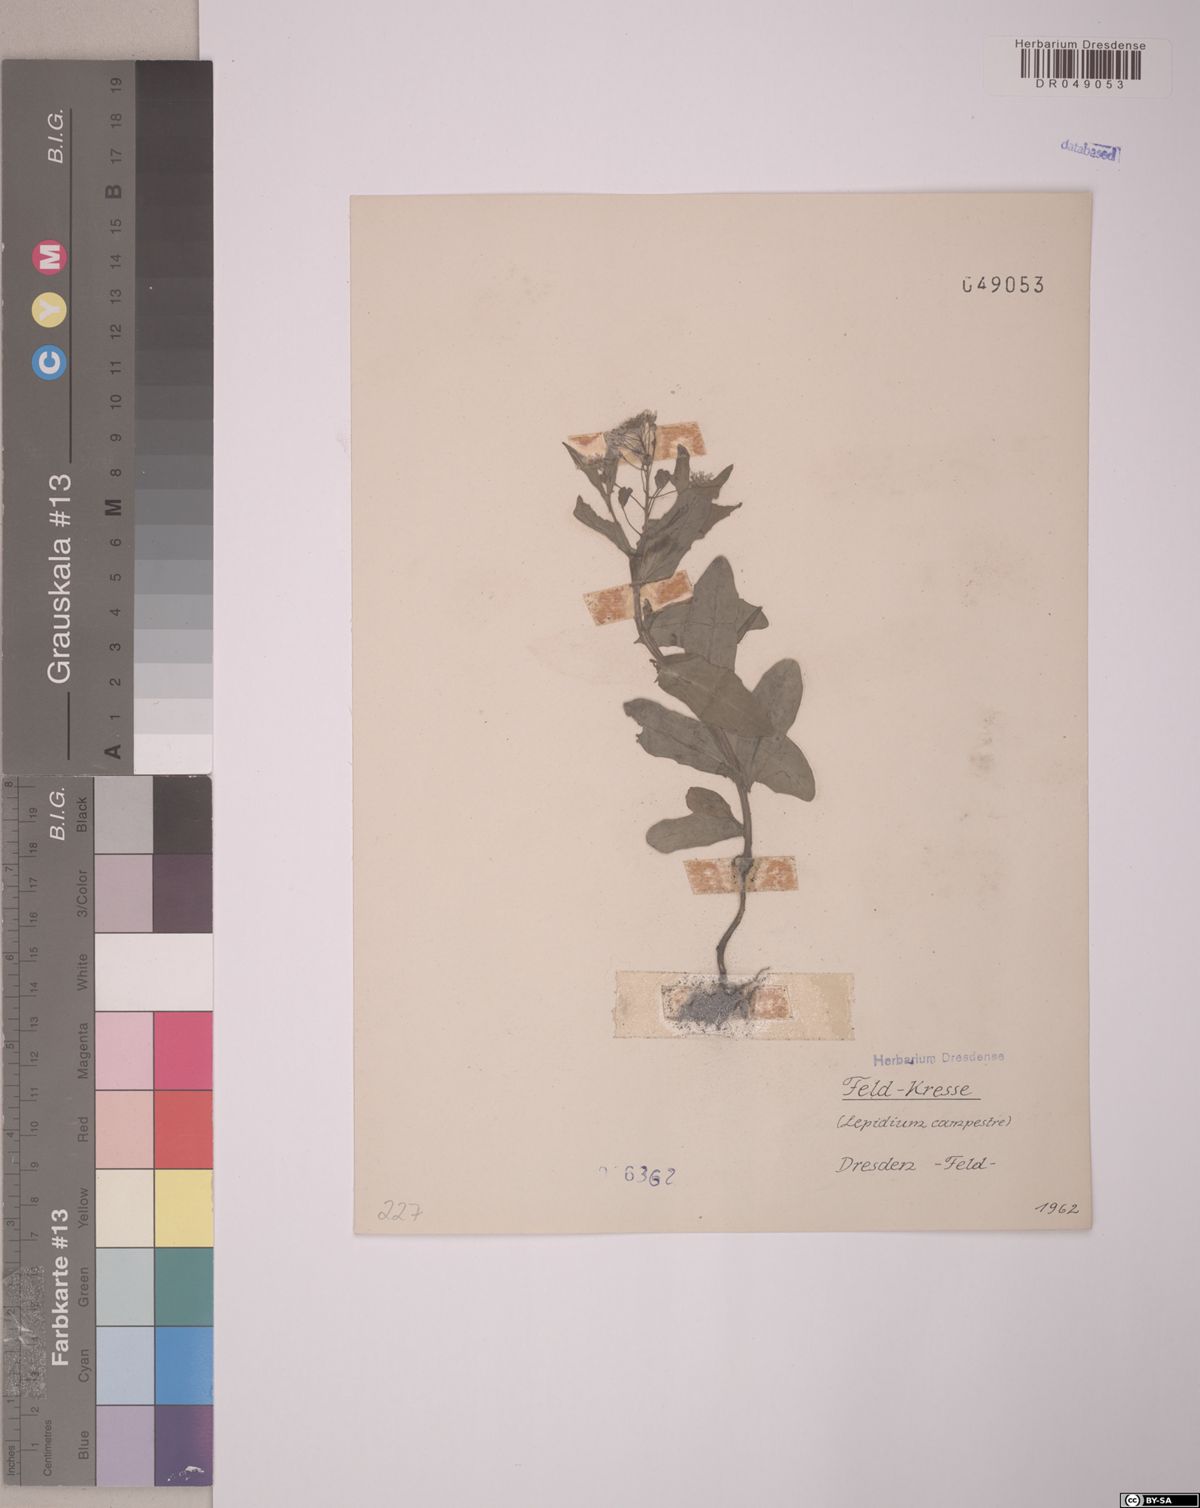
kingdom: Plantae
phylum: Tracheophyta
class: Magnoliopsida
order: Brassicales
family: Brassicaceae
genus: Lepidium
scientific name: Lepidium campestre
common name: Field pepperwort
